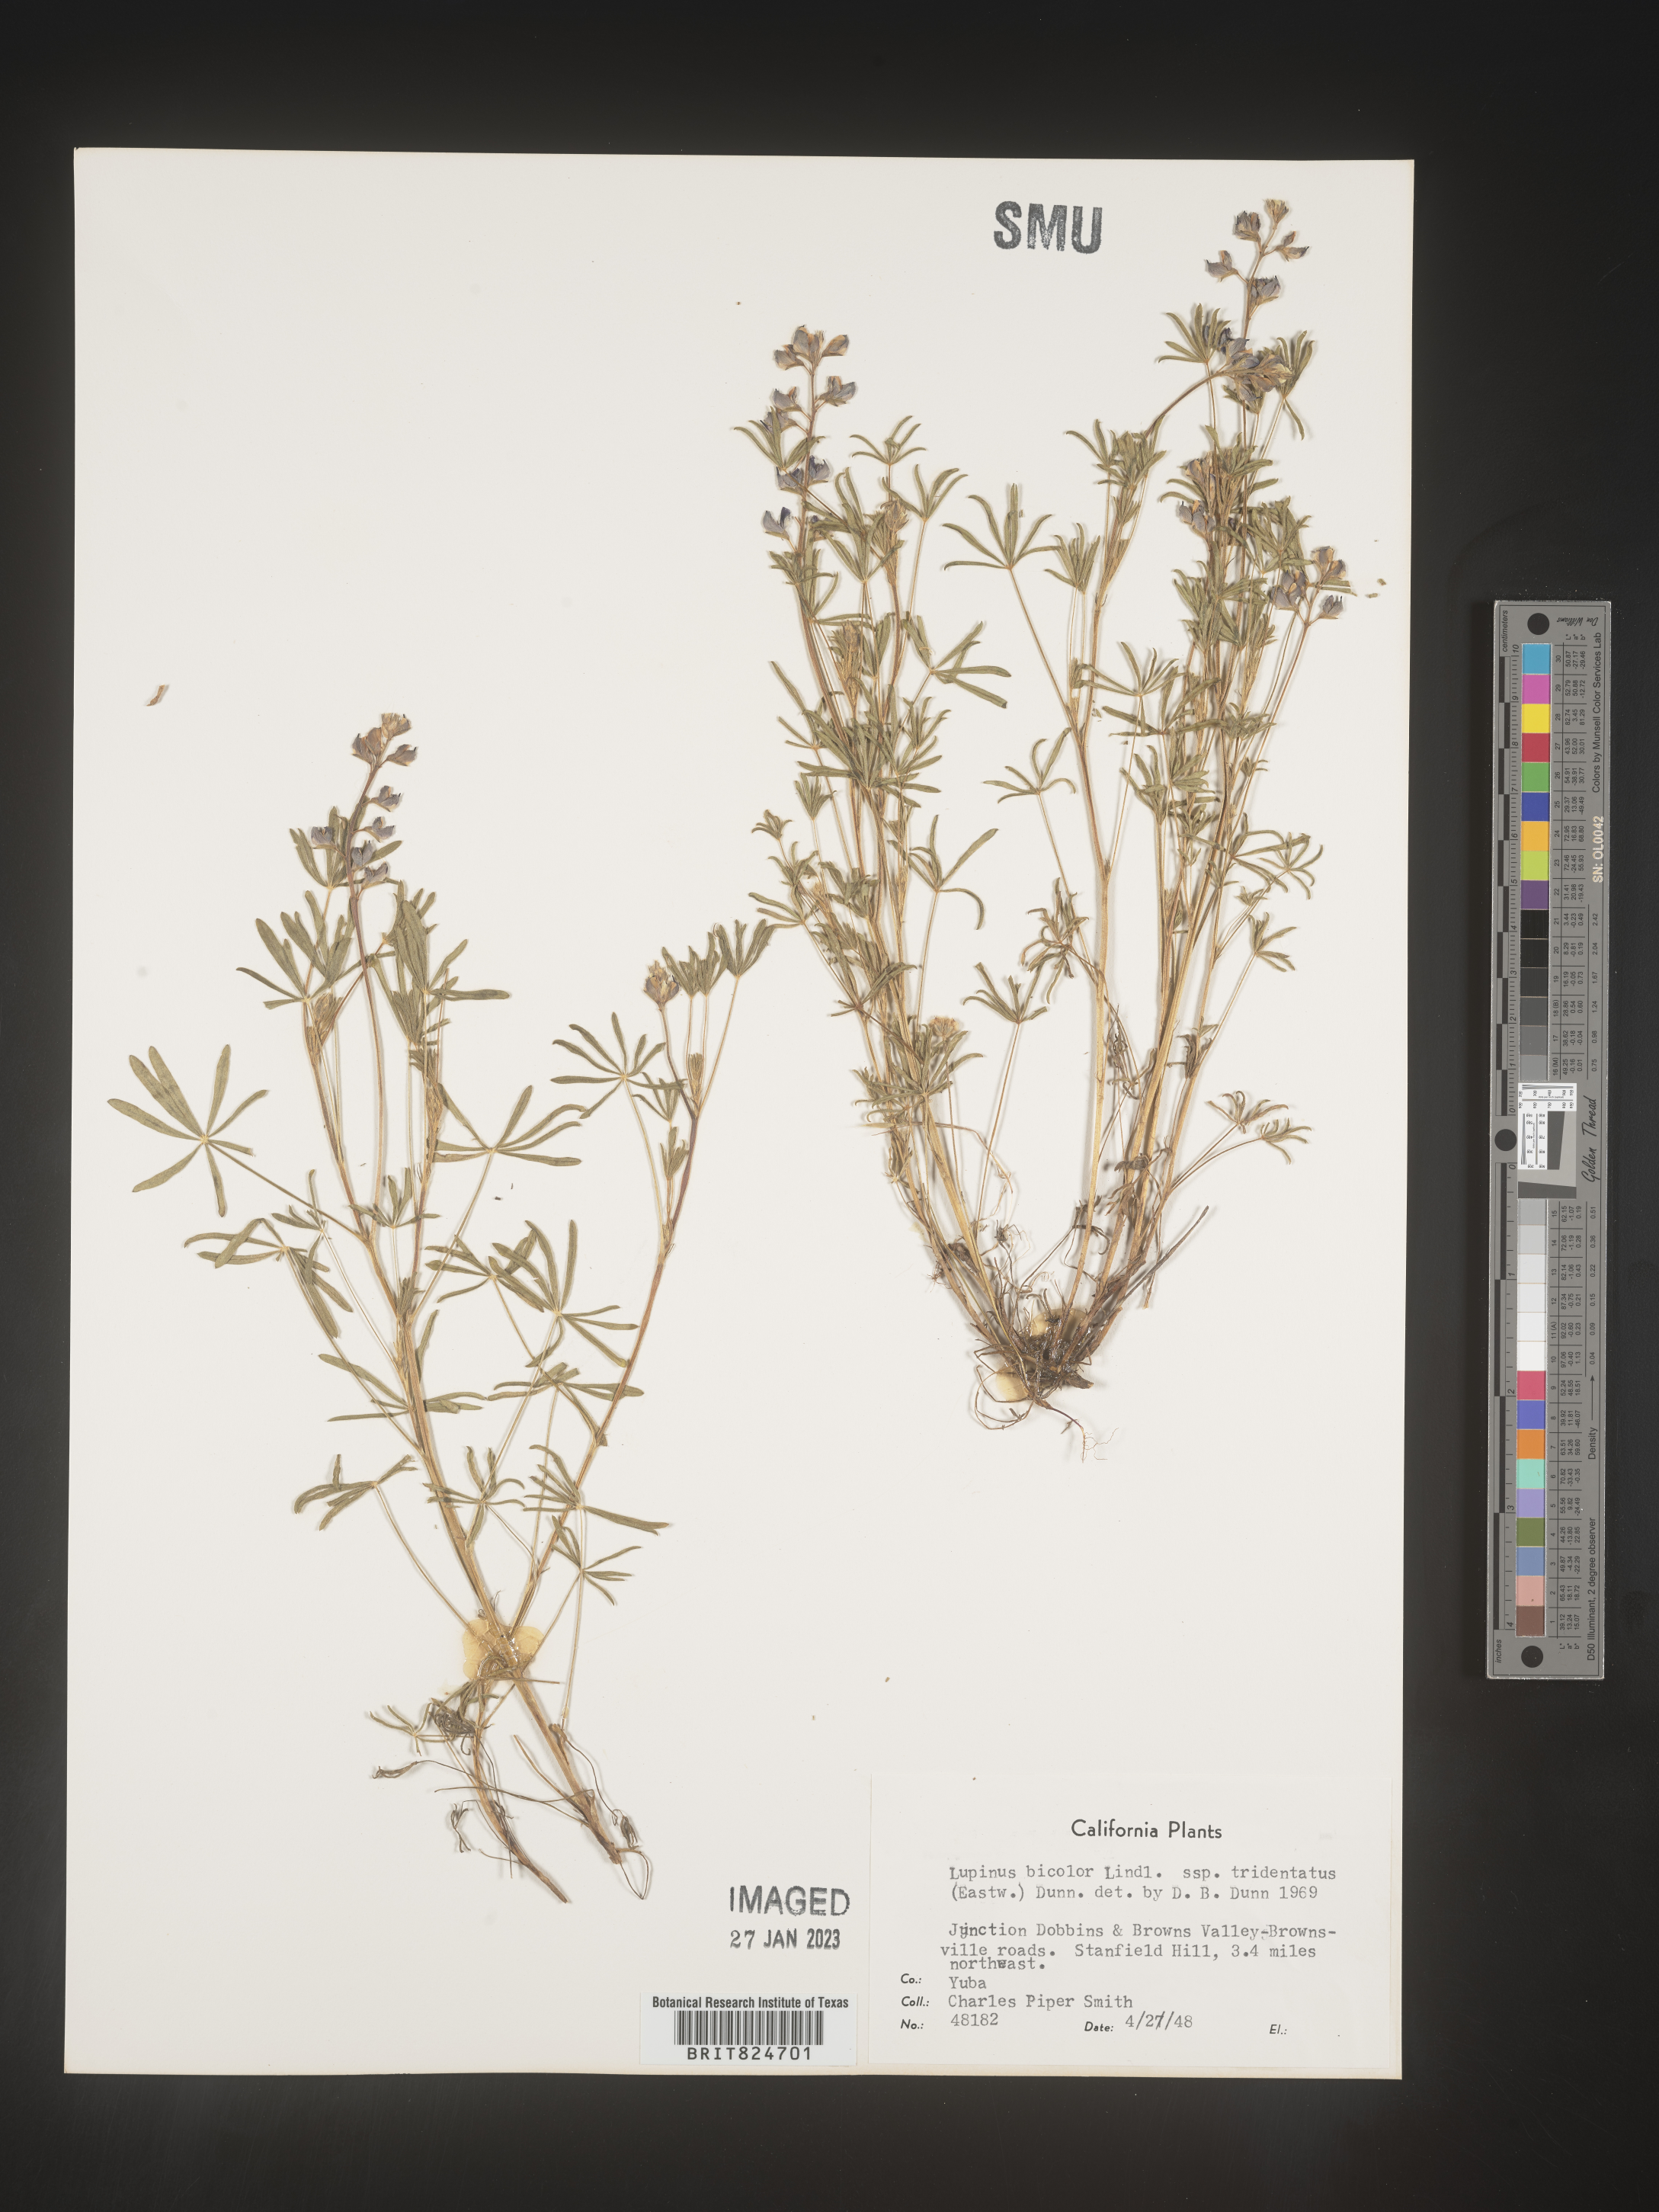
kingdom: Plantae
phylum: Tracheophyta
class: Magnoliopsida
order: Fabales
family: Fabaceae
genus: Lupinus
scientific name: Lupinus bicolor
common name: Miniature lupine
